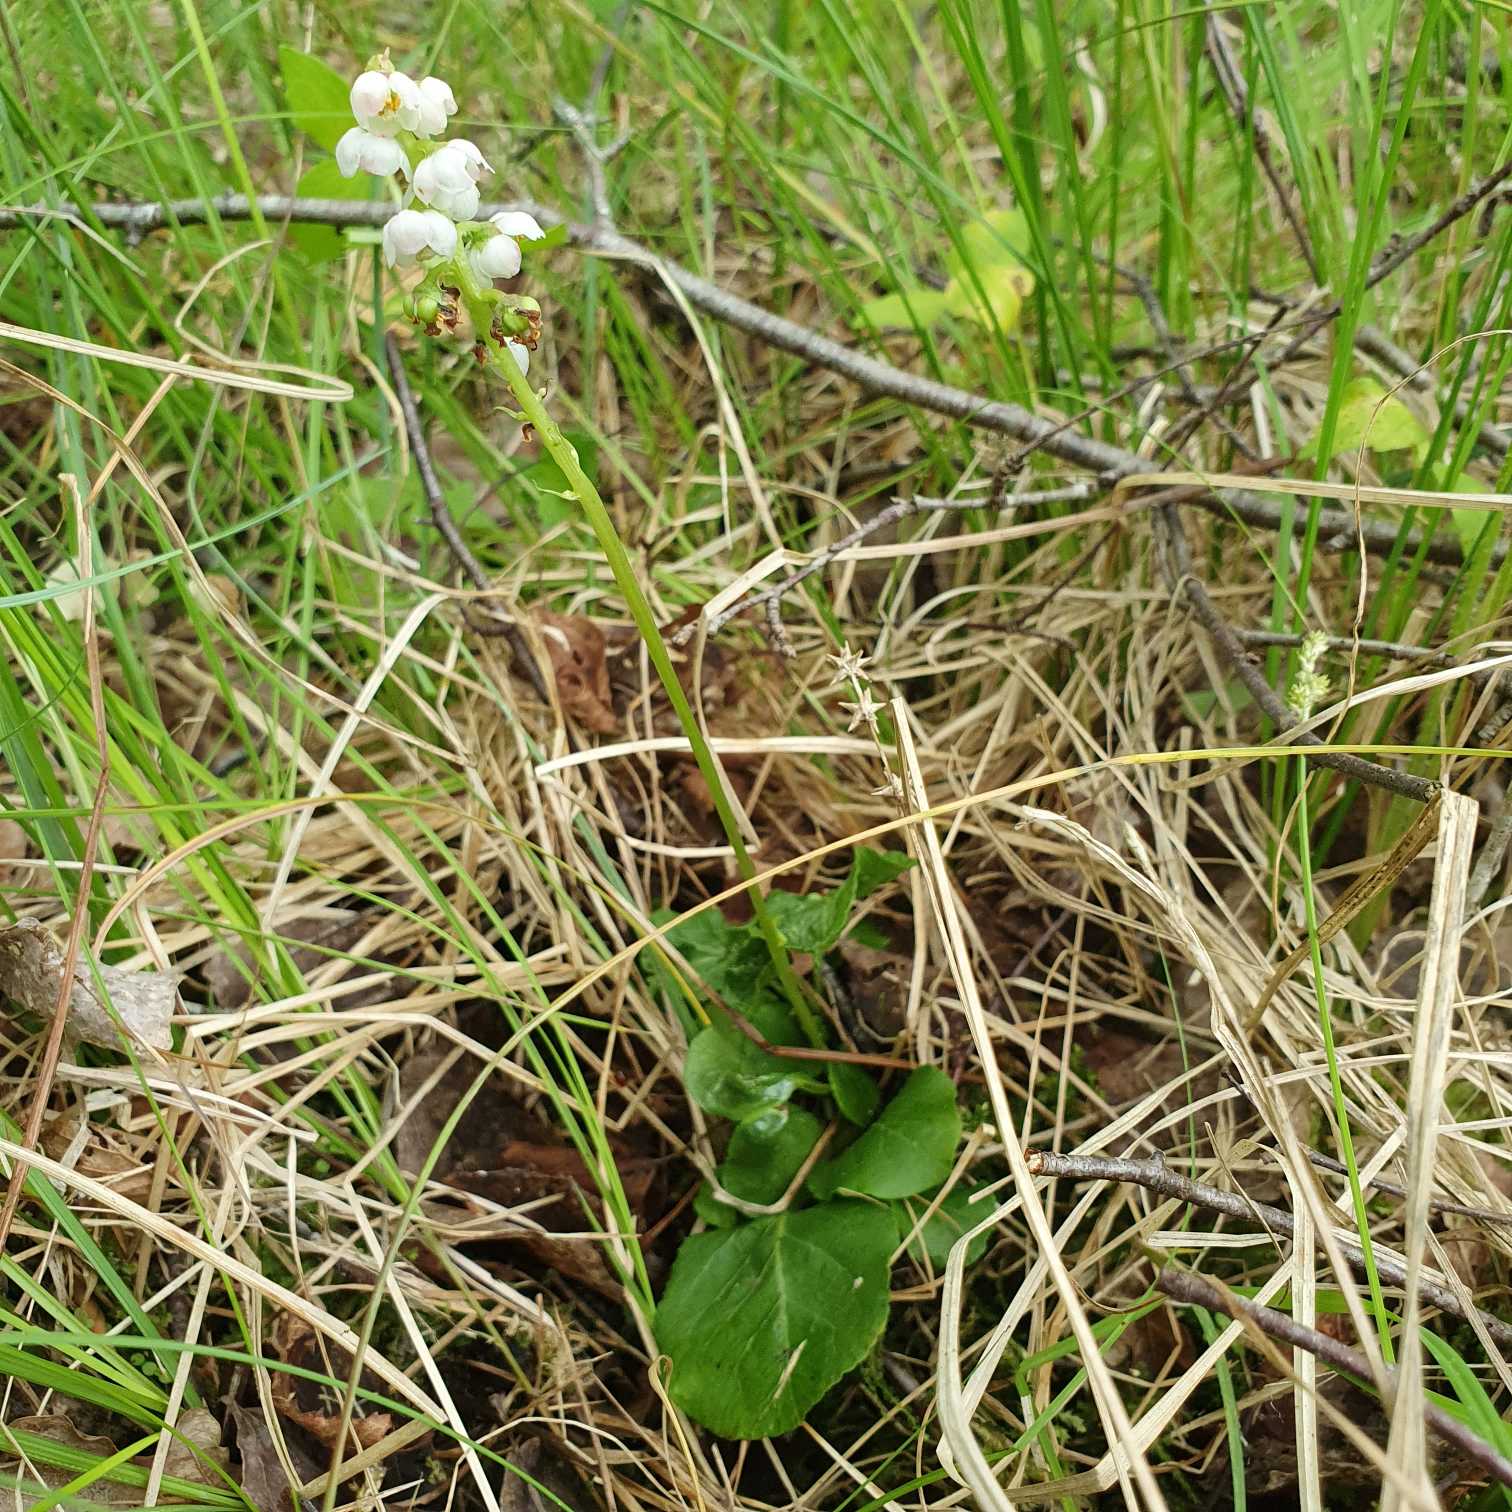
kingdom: Plantae
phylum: Tracheophyta
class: Magnoliopsida
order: Ericales
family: Ericaceae
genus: Pyrola
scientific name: Pyrola minor
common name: Liden vintergrøn
